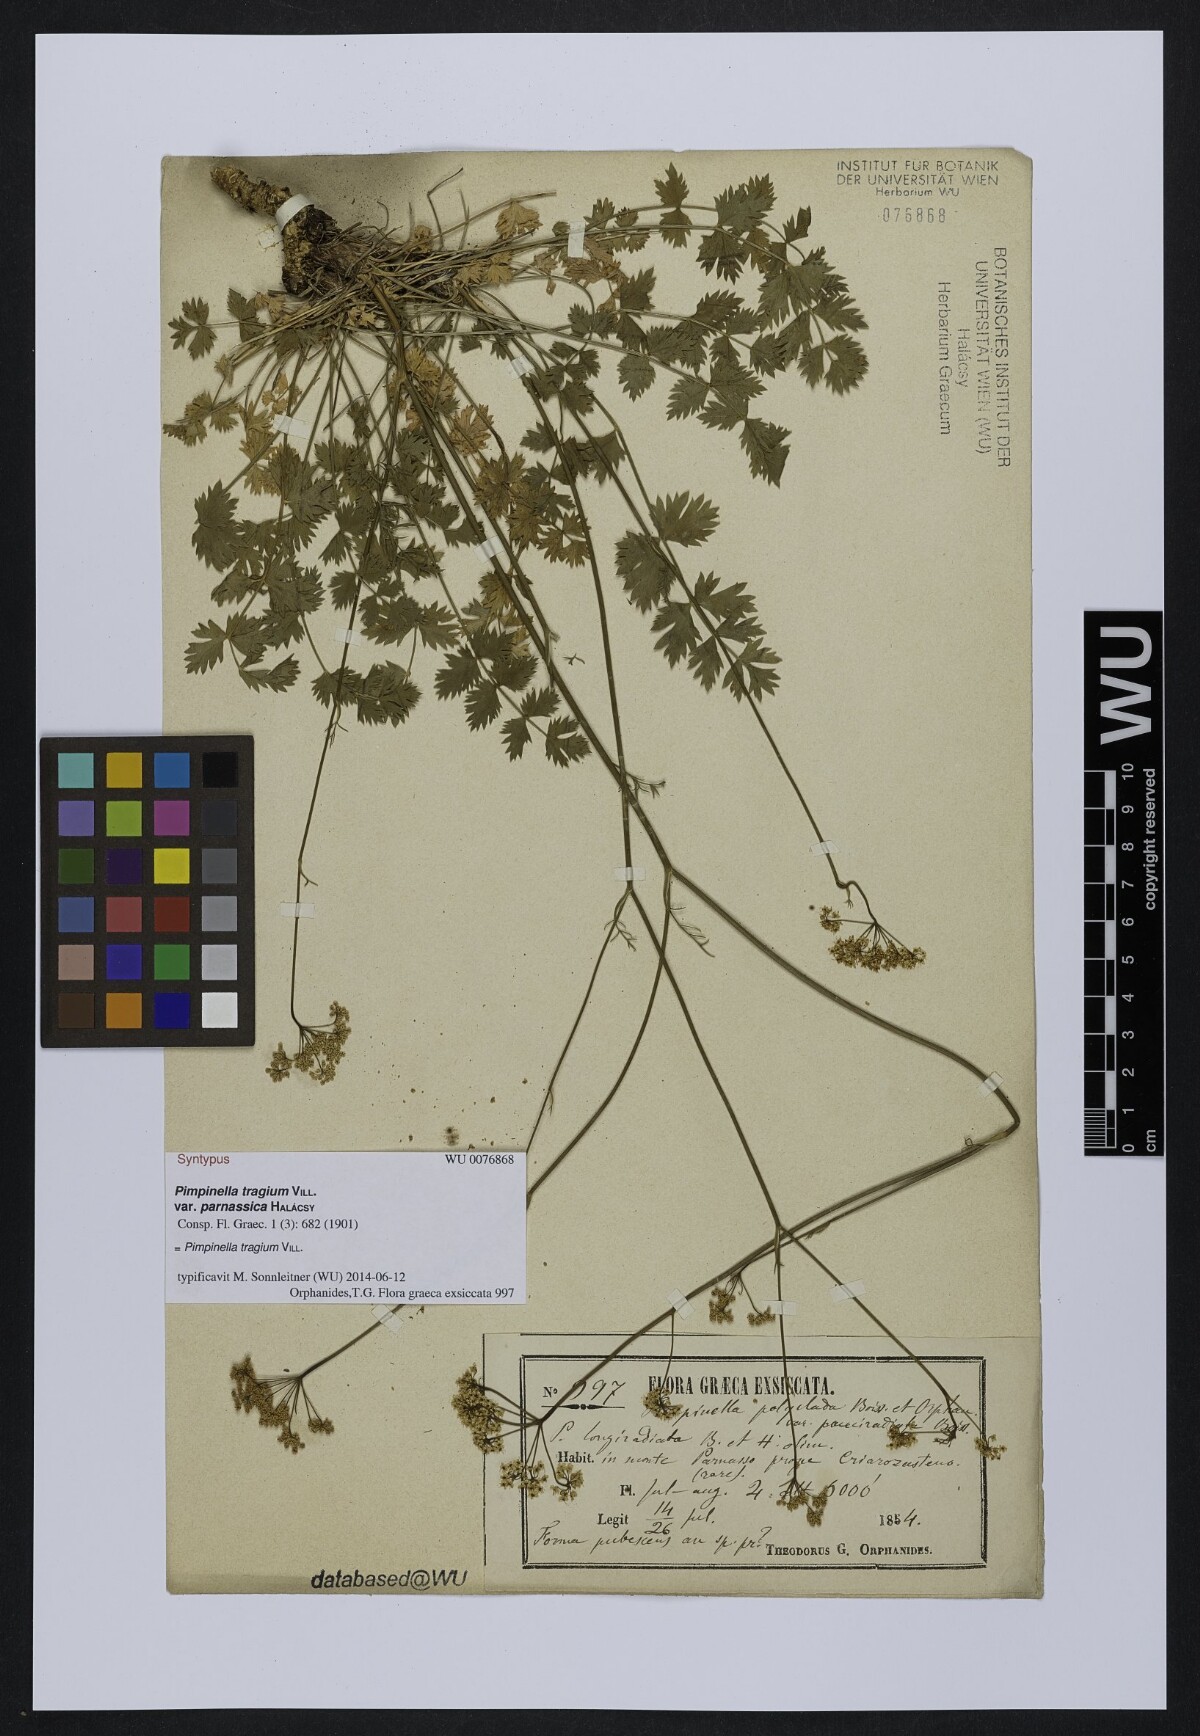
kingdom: Plantae
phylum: Tracheophyta
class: Magnoliopsida
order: Apiales
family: Apiaceae
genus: Pimpinella
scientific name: Pimpinella tragium
